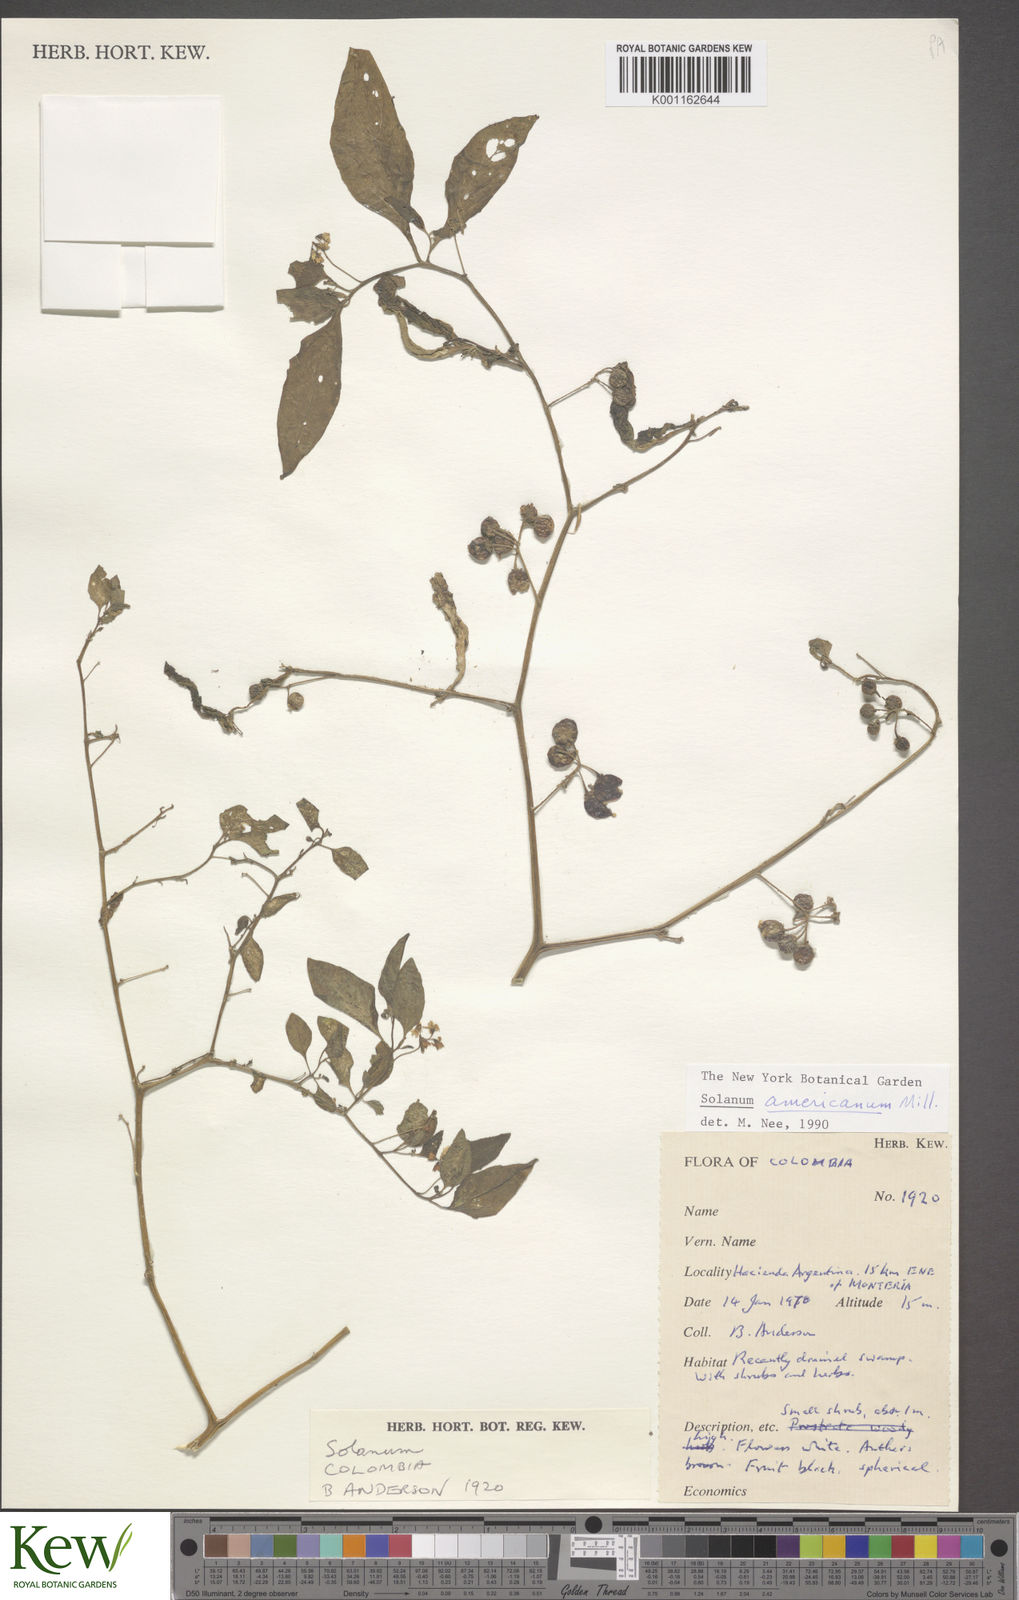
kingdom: Plantae
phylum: Tracheophyta
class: Magnoliopsida
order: Solanales
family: Solanaceae
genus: Solanum
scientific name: Solanum americanum
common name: American black nightshade
